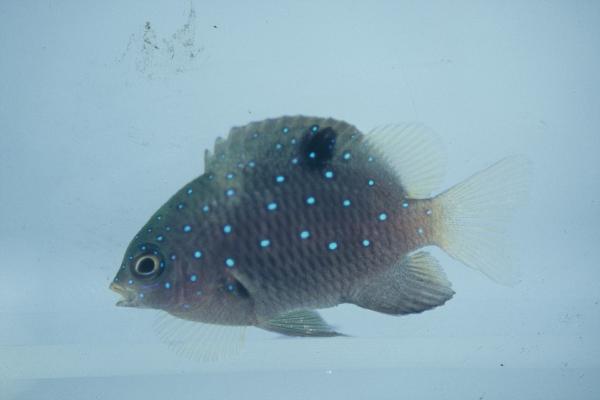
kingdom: Animalia
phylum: Chordata
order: Perciformes
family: Pomacentridae
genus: Plectroglyphidodon
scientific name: Plectroglyphidodon lacrymatus
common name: Jewel damsel
